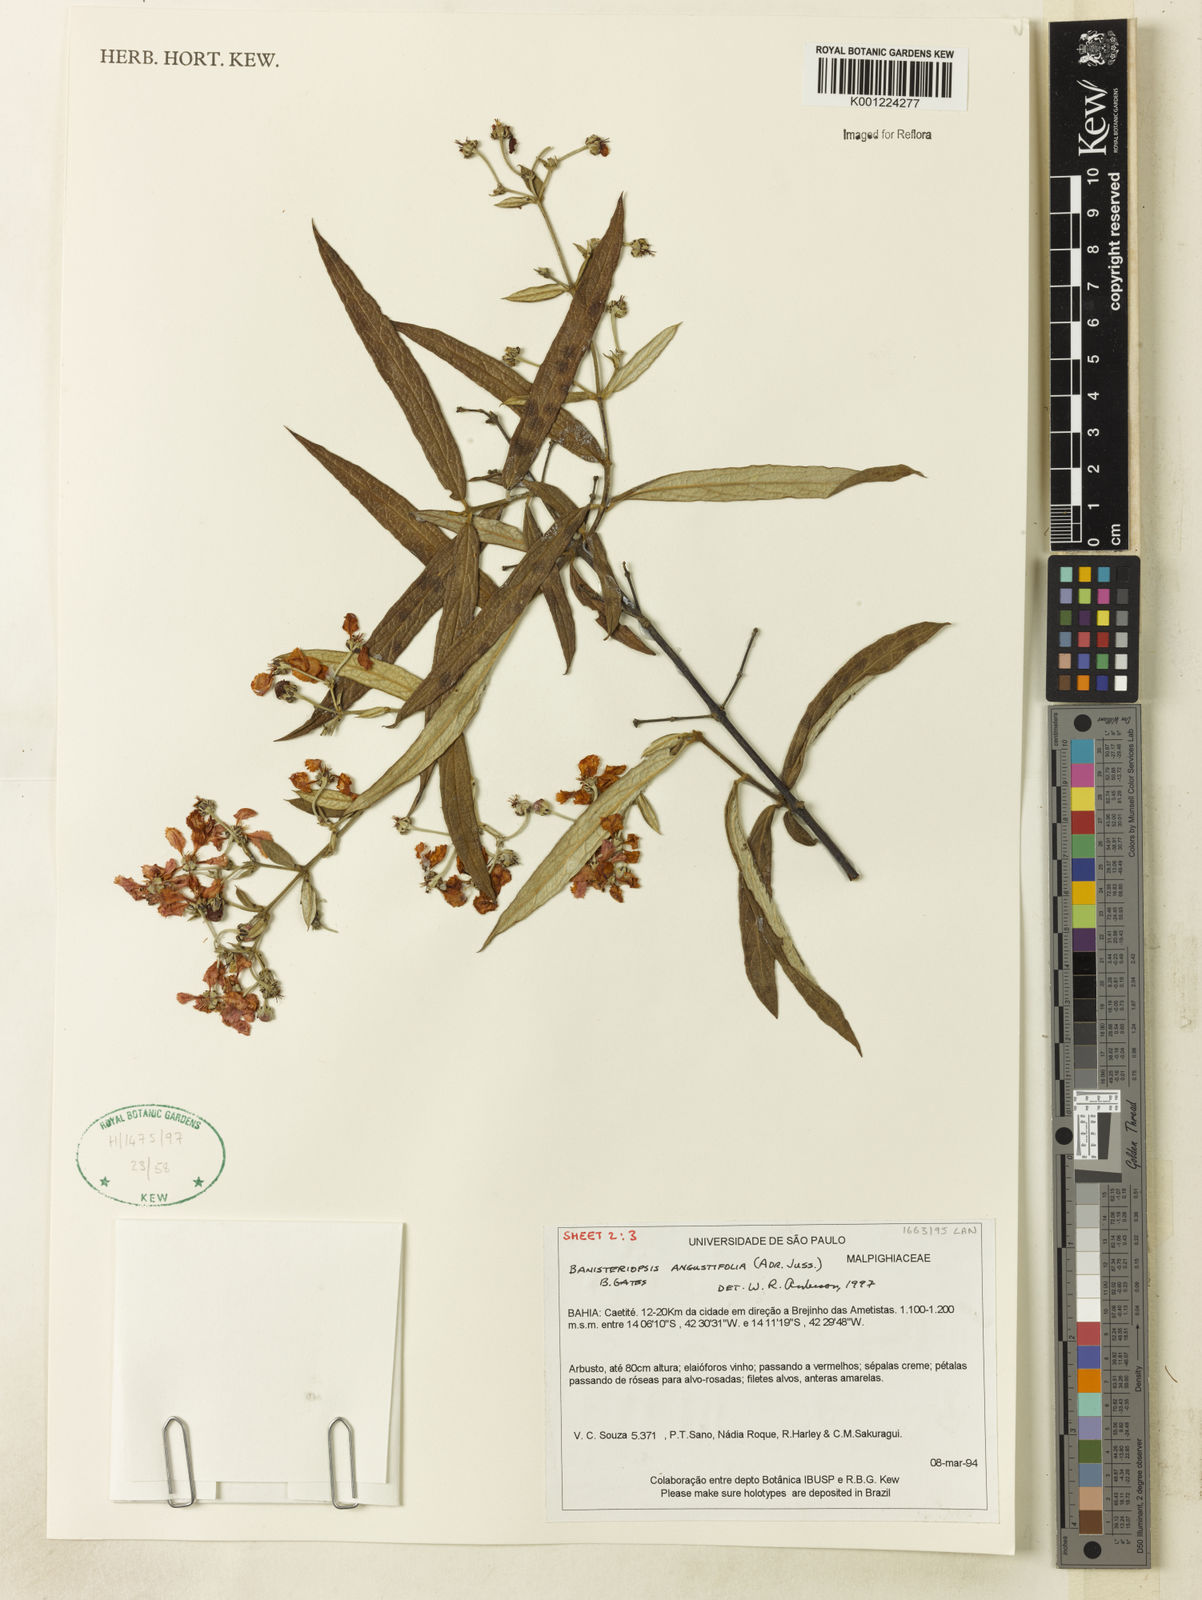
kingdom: Plantae
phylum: Tracheophyta
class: Magnoliopsida
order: Malpighiales
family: Malpighiaceae
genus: Banisteriopsis
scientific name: Banisteriopsis angustifolia
